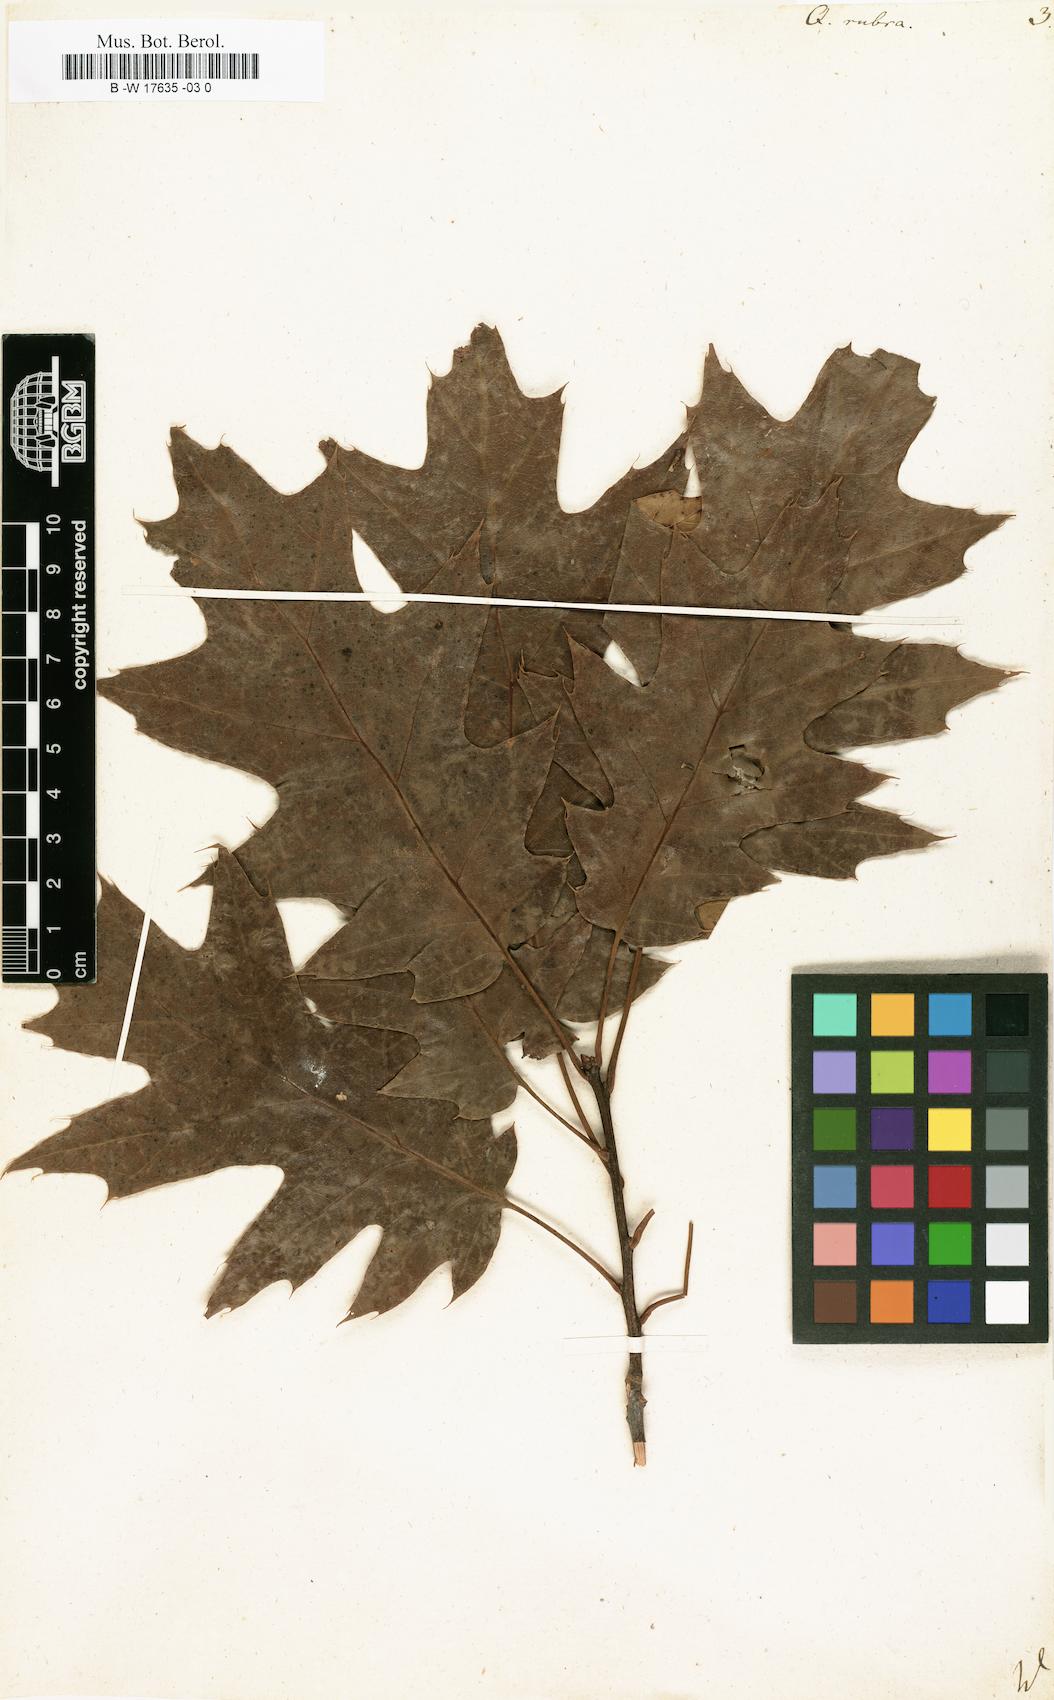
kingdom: Plantae
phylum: Tracheophyta
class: Magnoliopsida
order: Fagales
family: Fagaceae
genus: Quercus
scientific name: Quercus rubra
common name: Red oak
